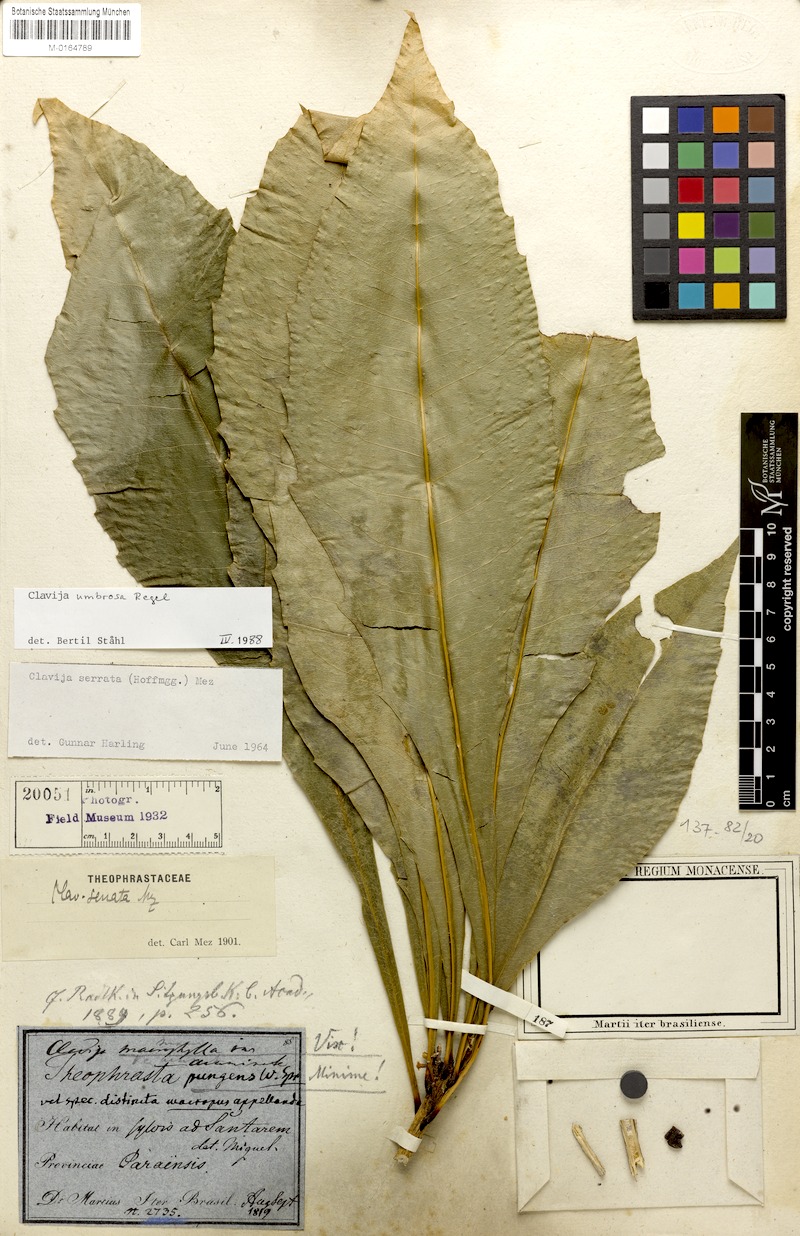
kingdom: Plantae
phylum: Tracheophyta
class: Magnoliopsida
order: Ericales
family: Primulaceae
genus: Clavija
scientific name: Clavija umbrosa
